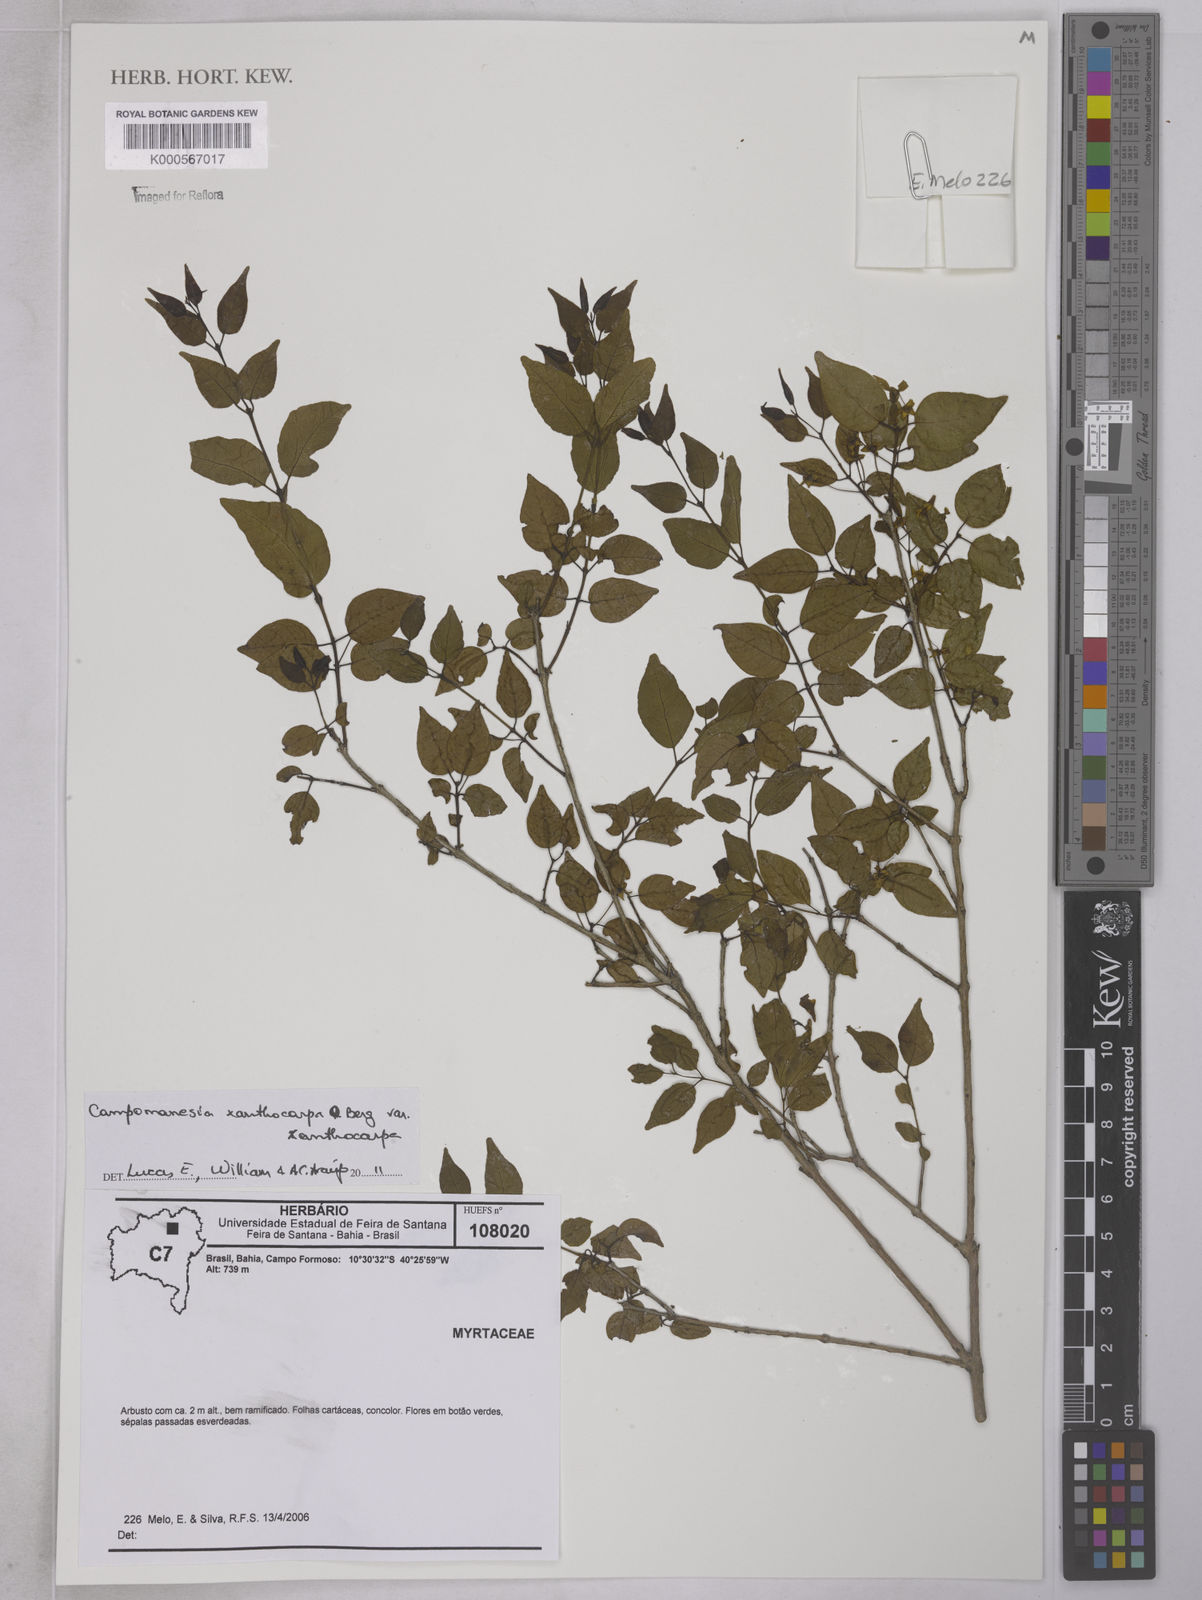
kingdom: Plantae
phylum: Tracheophyta
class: Magnoliopsida
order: Myrtales
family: Myrtaceae
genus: Campomanesia
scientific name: Campomanesia xanthocarpa
